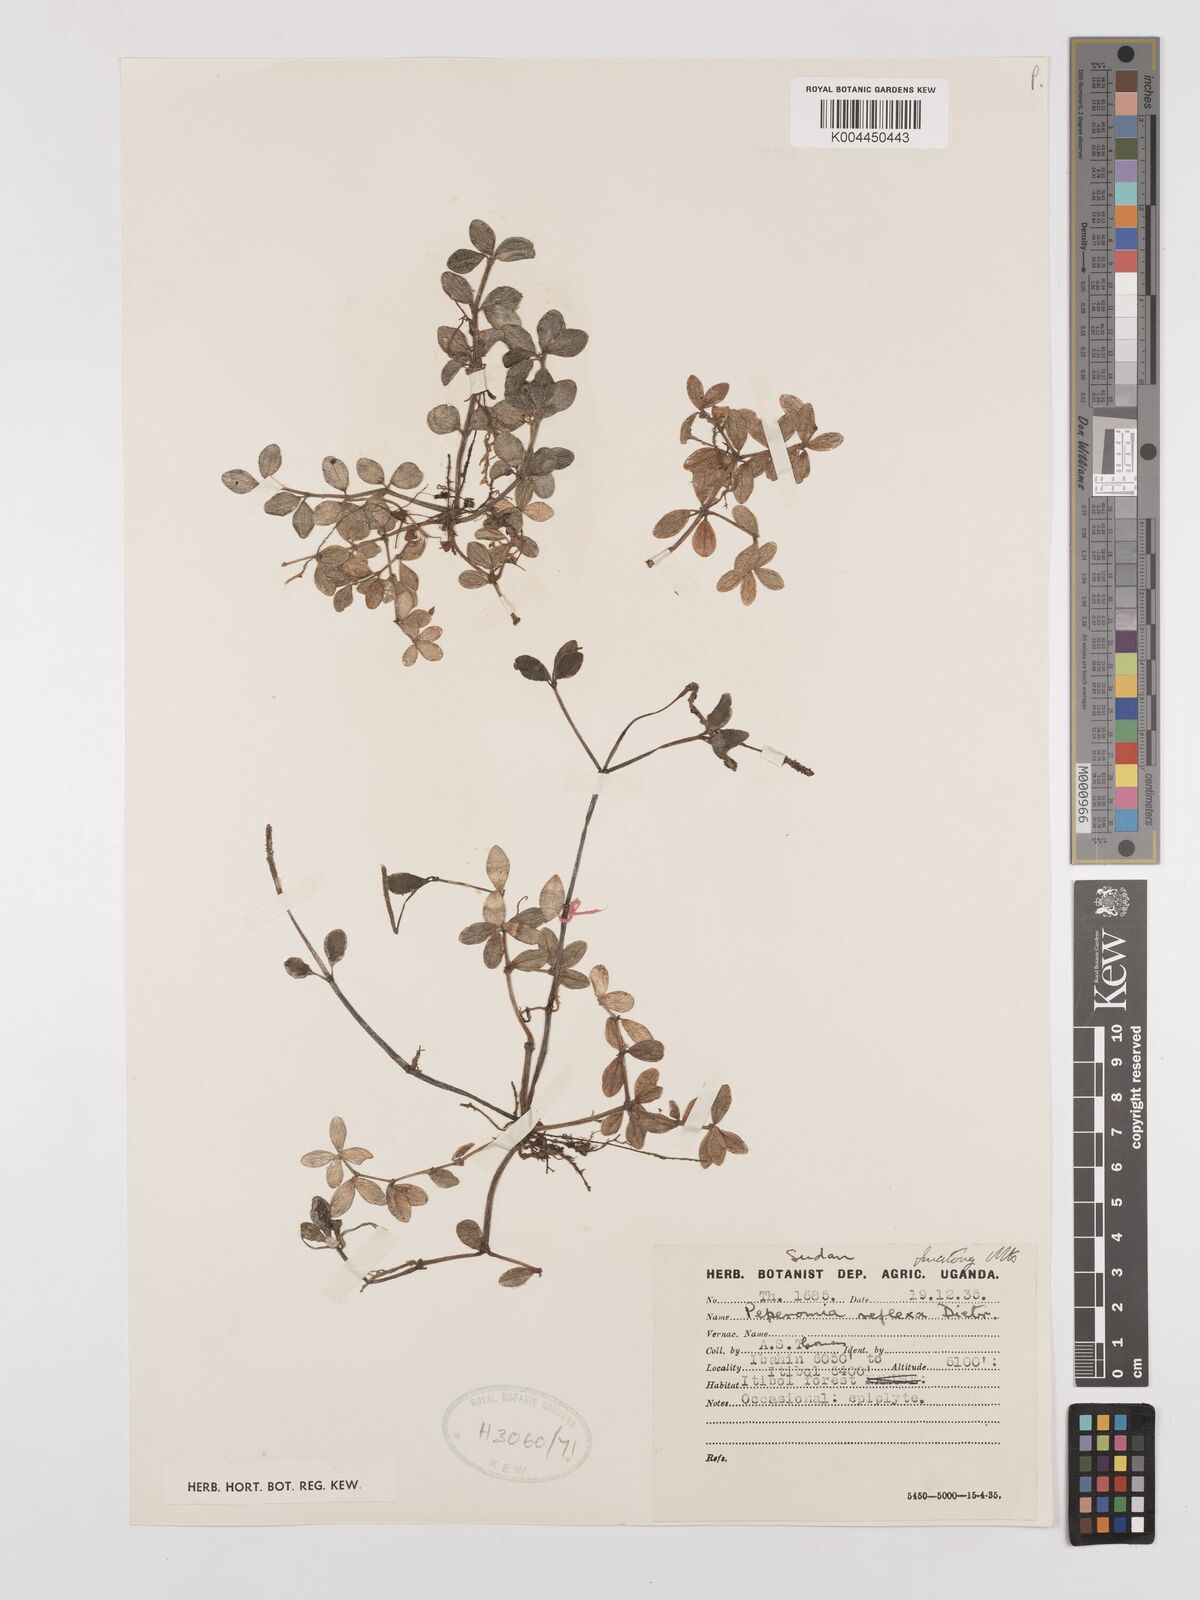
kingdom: Plantae
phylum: Tracheophyta
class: Magnoliopsida
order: Piperales
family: Piperaceae
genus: Peperomia
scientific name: Peperomia tetraphylla
